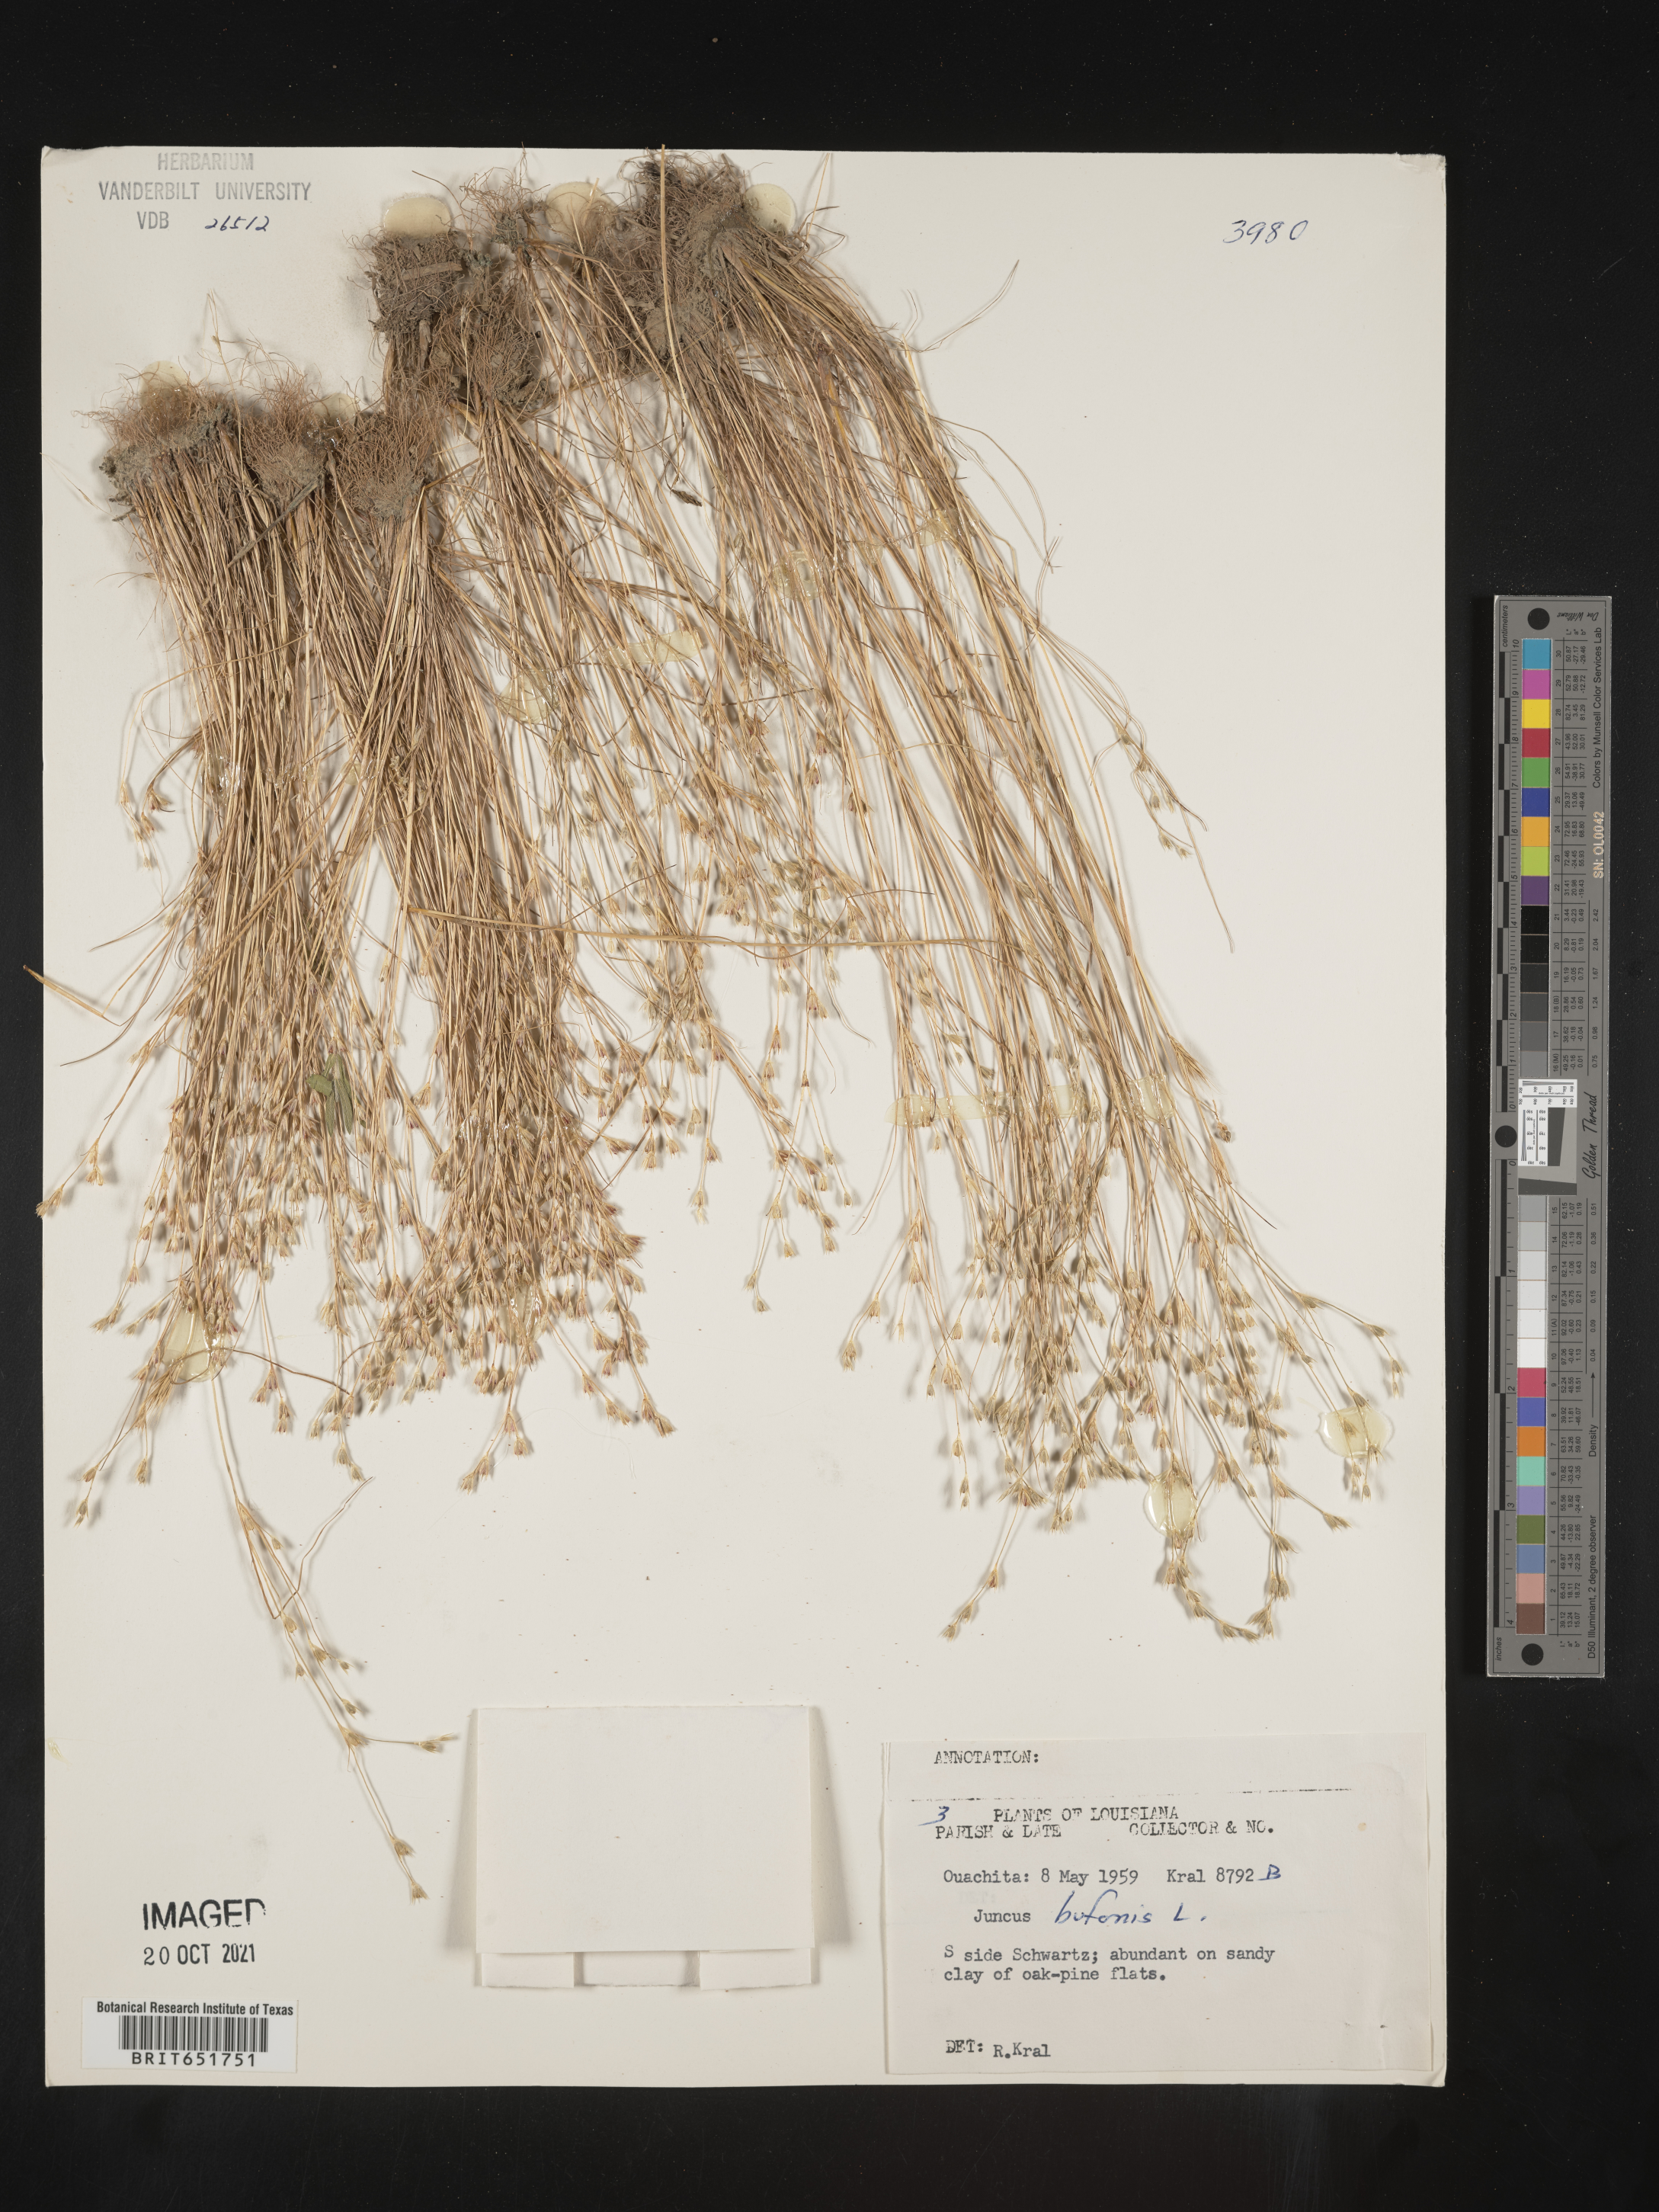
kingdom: Plantae
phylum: Tracheophyta
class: Liliopsida
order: Poales
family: Juncaceae
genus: Juncus
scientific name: Juncus bufonius
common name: Toad rush
